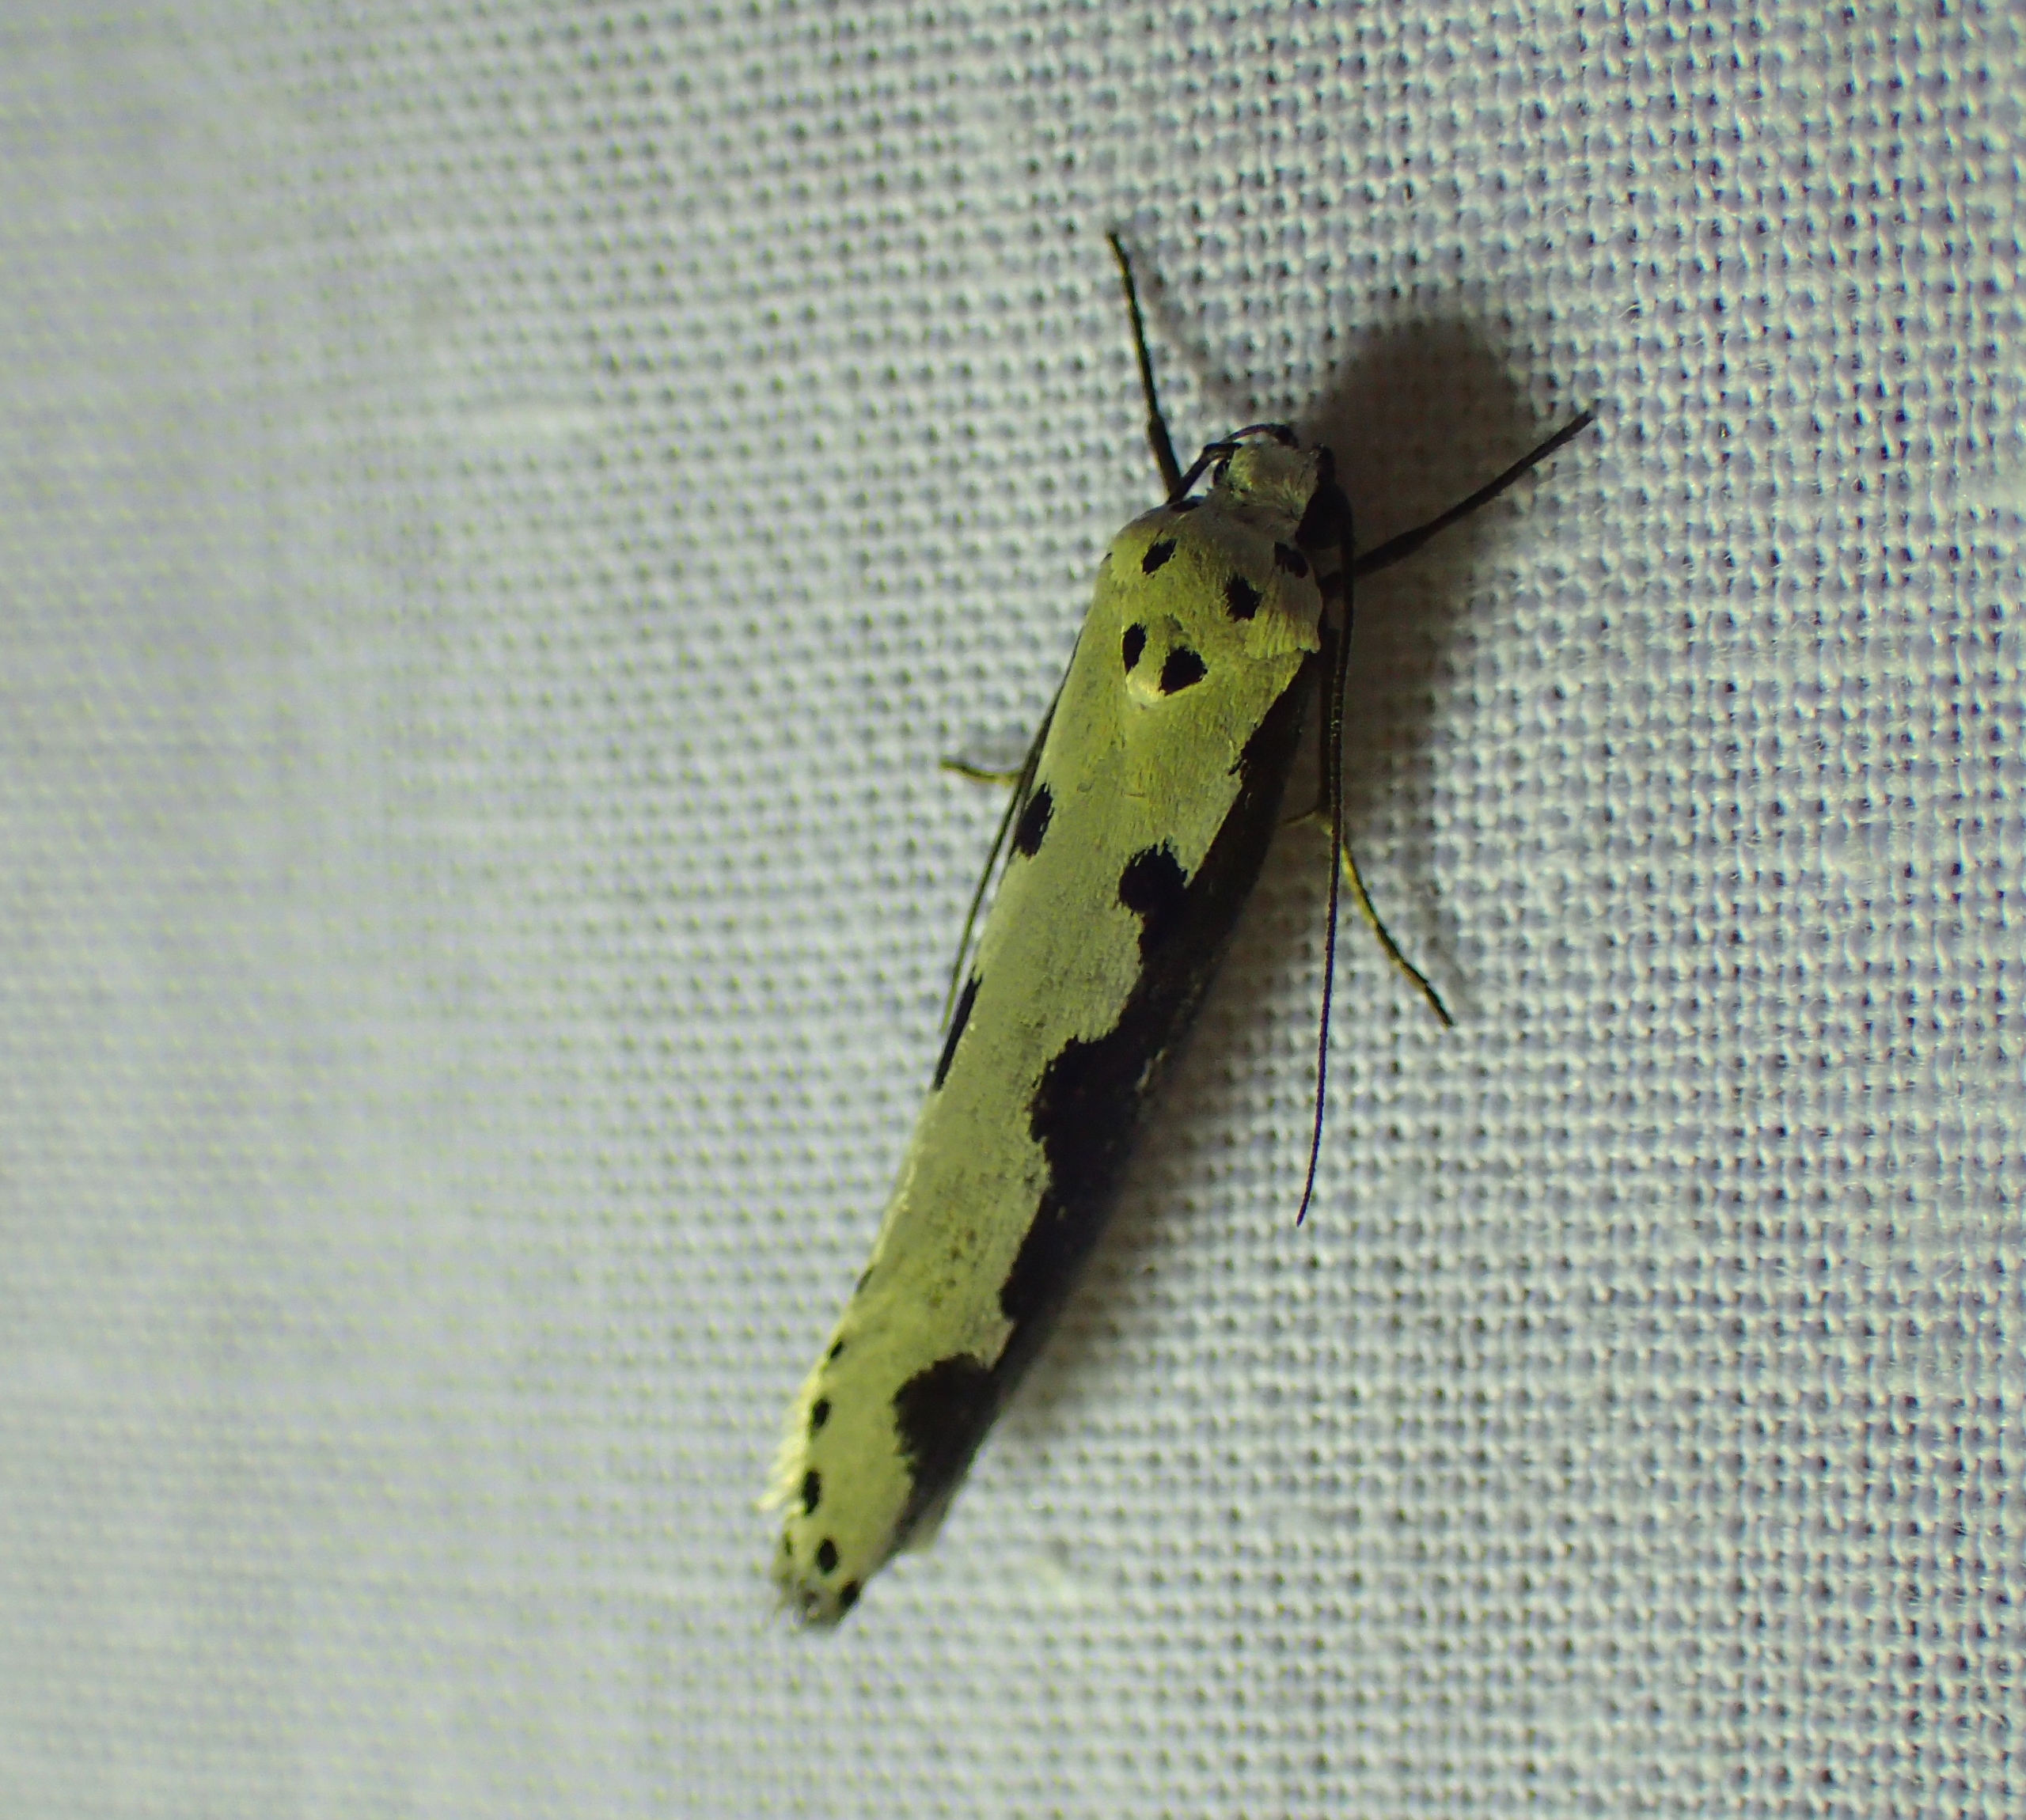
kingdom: Animalia
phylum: Arthropoda
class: Insecta
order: Lepidoptera
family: Ethmiidae
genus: Ethmia
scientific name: Ethmia bipunctella
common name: Slangehovedmøl
